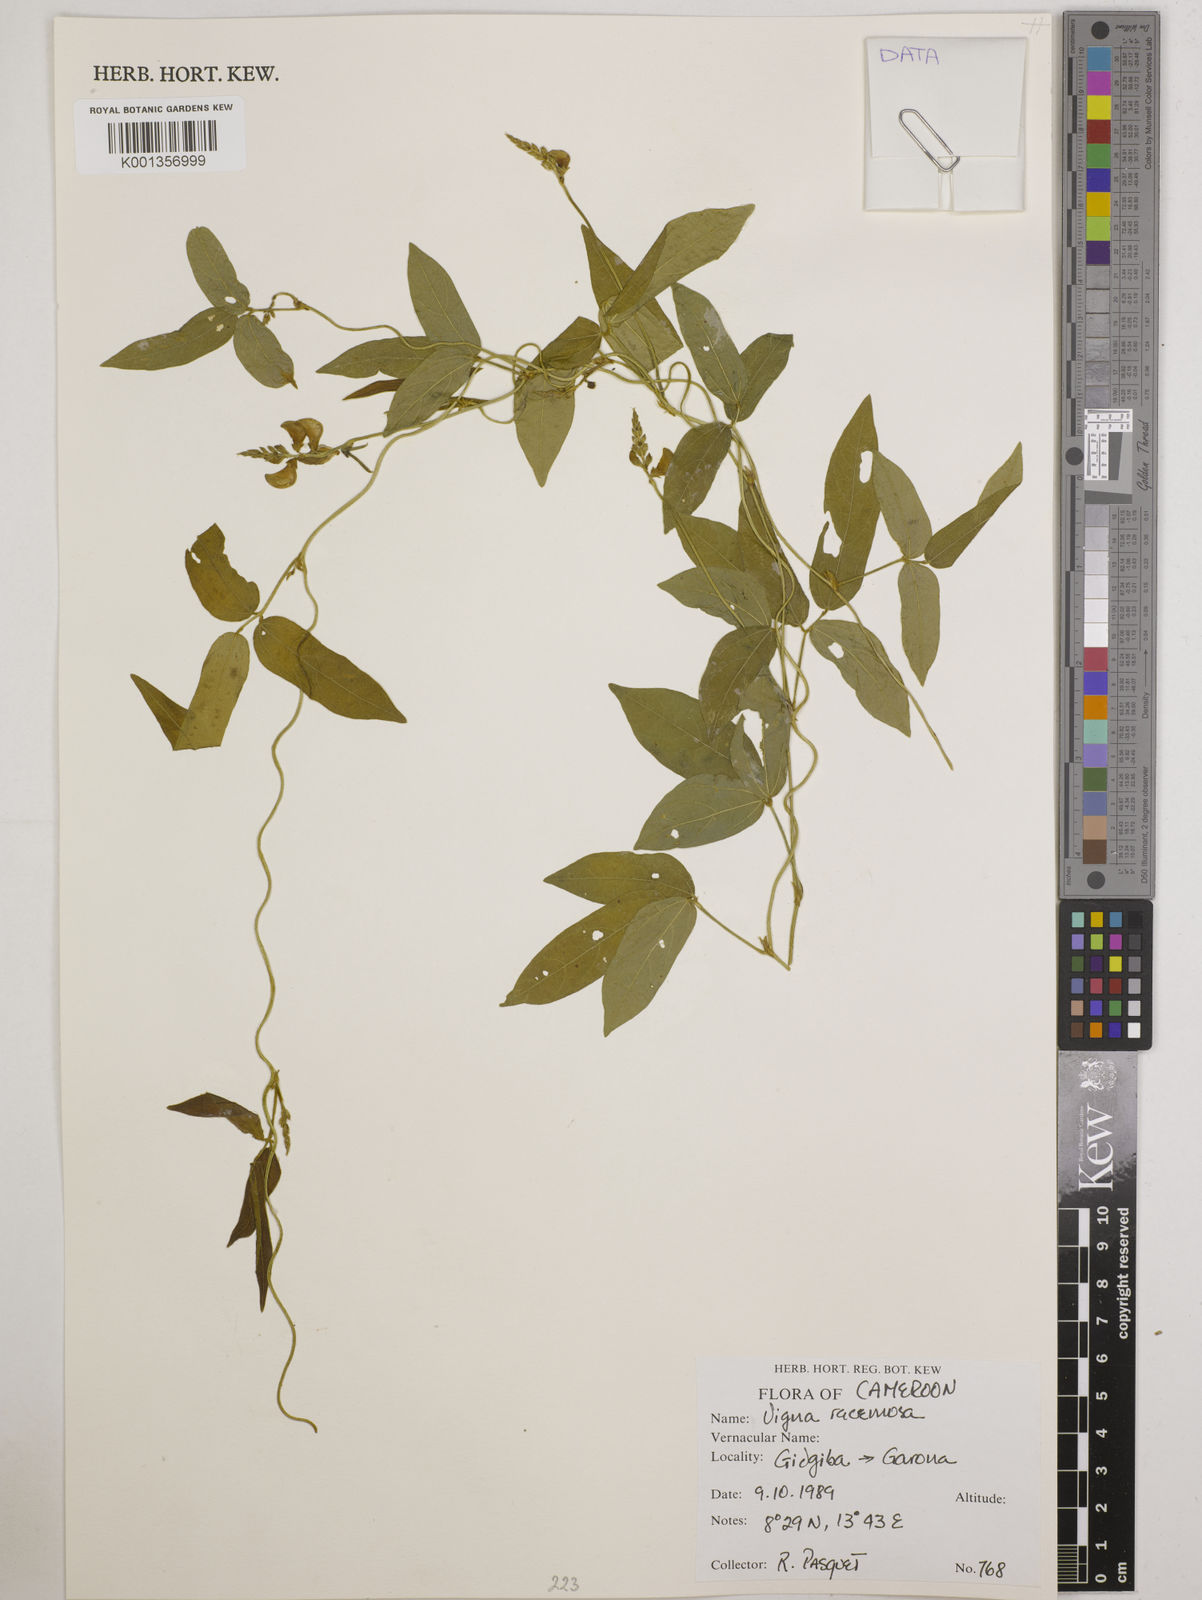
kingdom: Plantae
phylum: Tracheophyta
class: Magnoliopsida
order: Fabales
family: Fabaceae
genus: Vigna
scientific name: Vigna racemosa
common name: Beans not eaten
